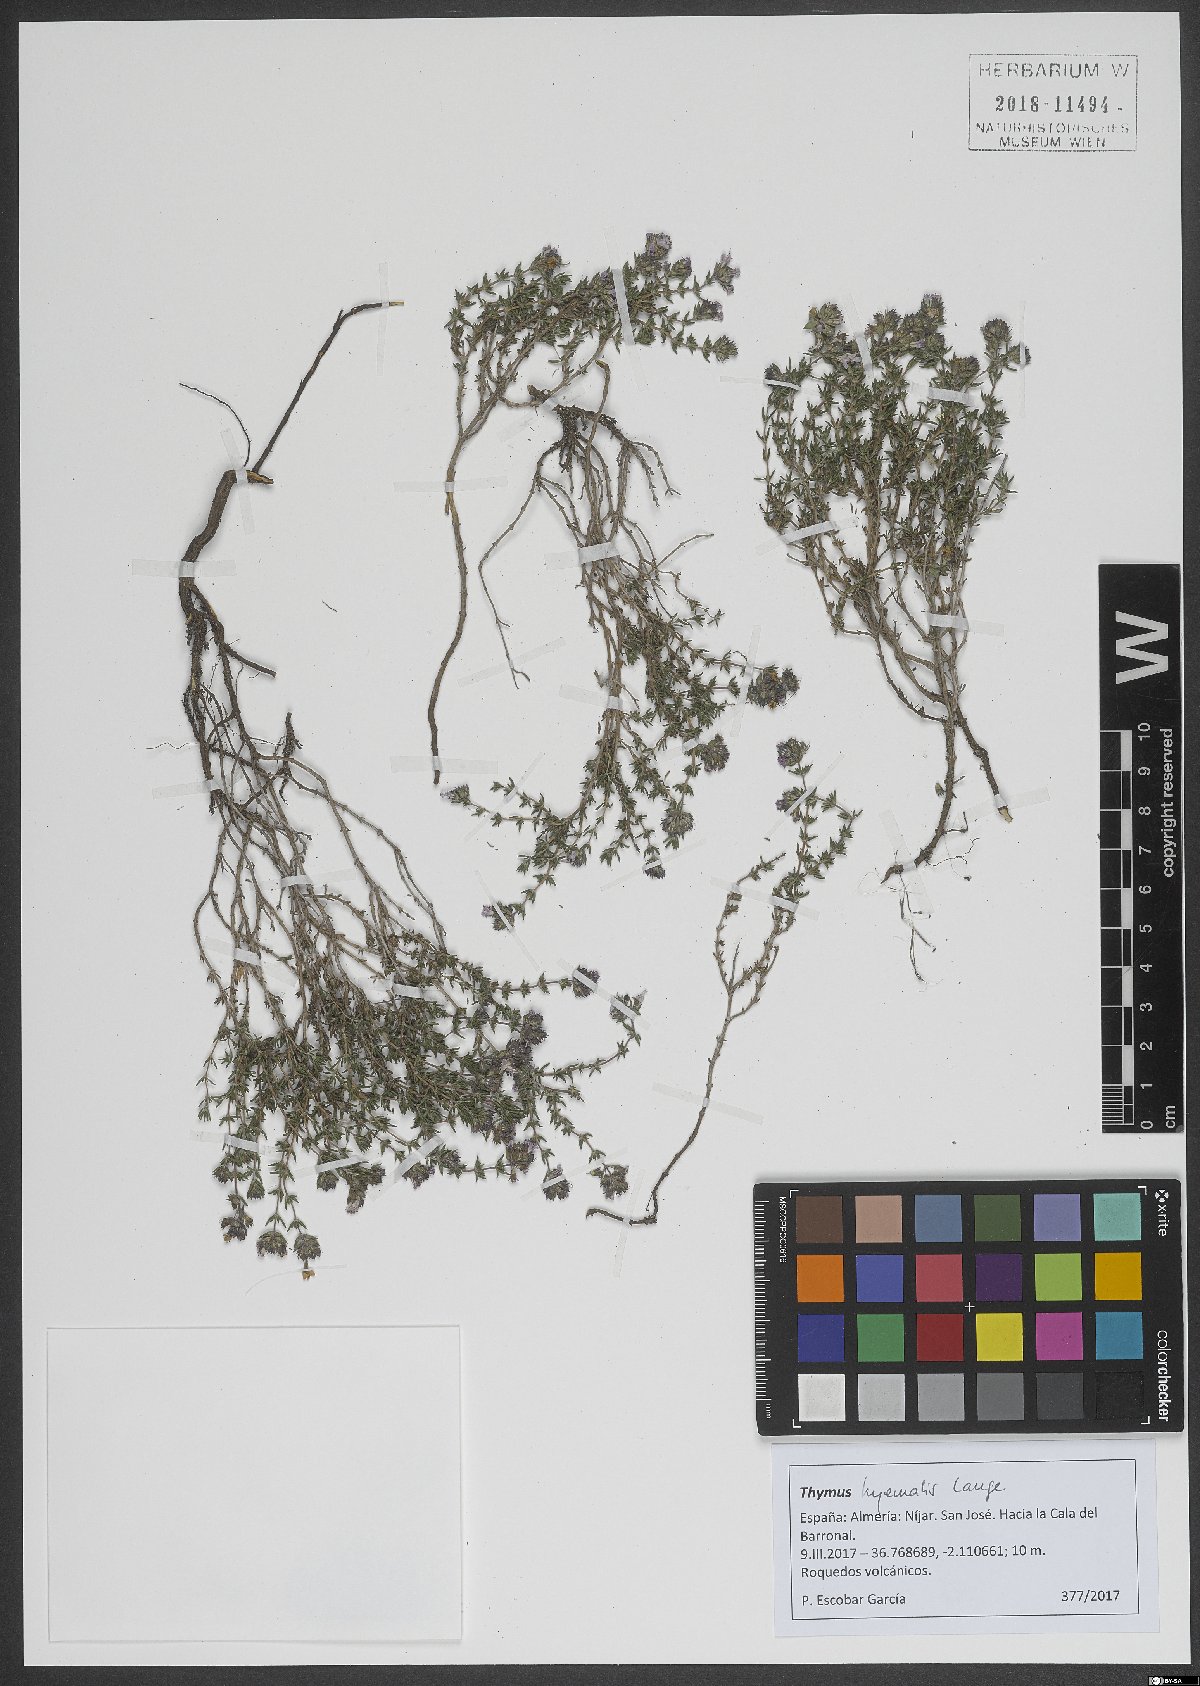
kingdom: Plantae
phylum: Tracheophyta
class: Magnoliopsida
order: Lamiales
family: Lamiaceae
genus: Thymus
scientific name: Thymus hyemalis
